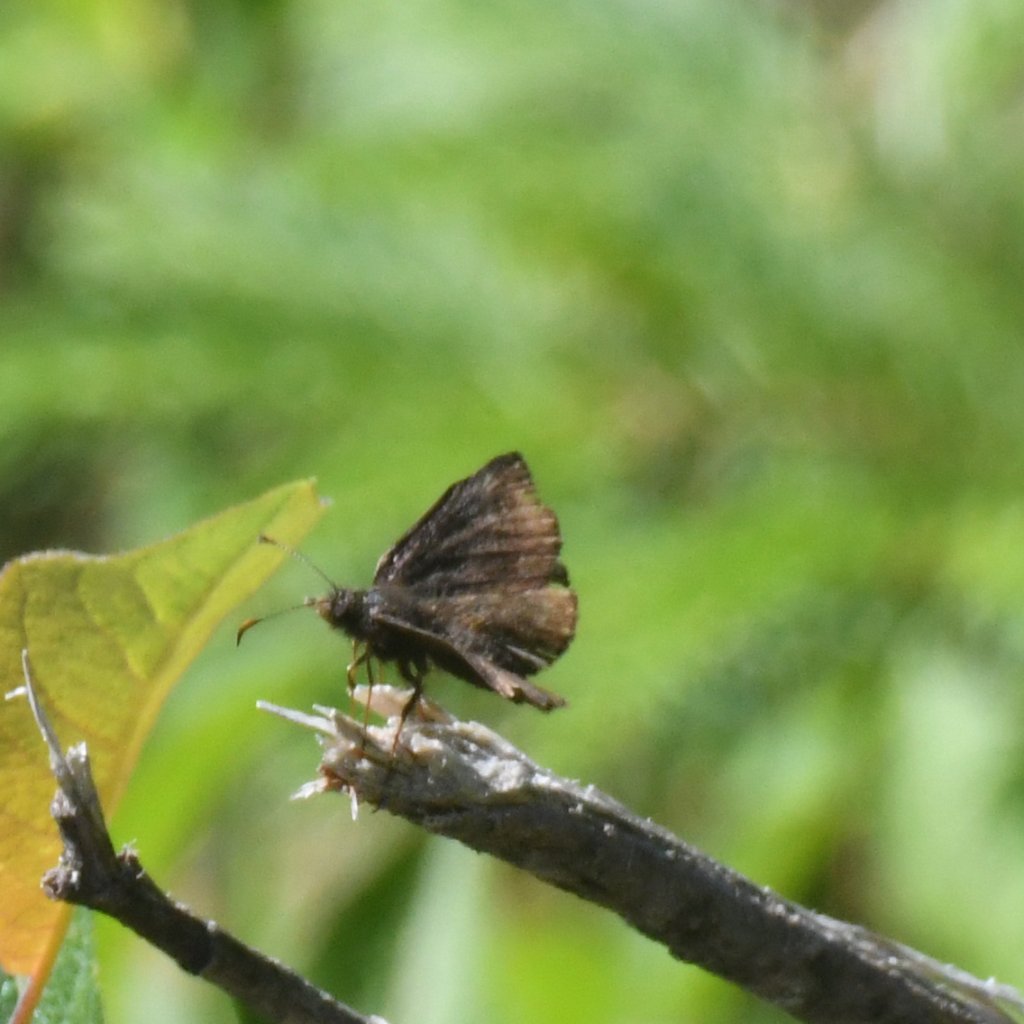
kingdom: Animalia
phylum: Arthropoda
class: Insecta
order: Lepidoptera
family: Hesperiidae
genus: Erynnis
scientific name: Erynnis icelus
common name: Dreamy Duskywing
